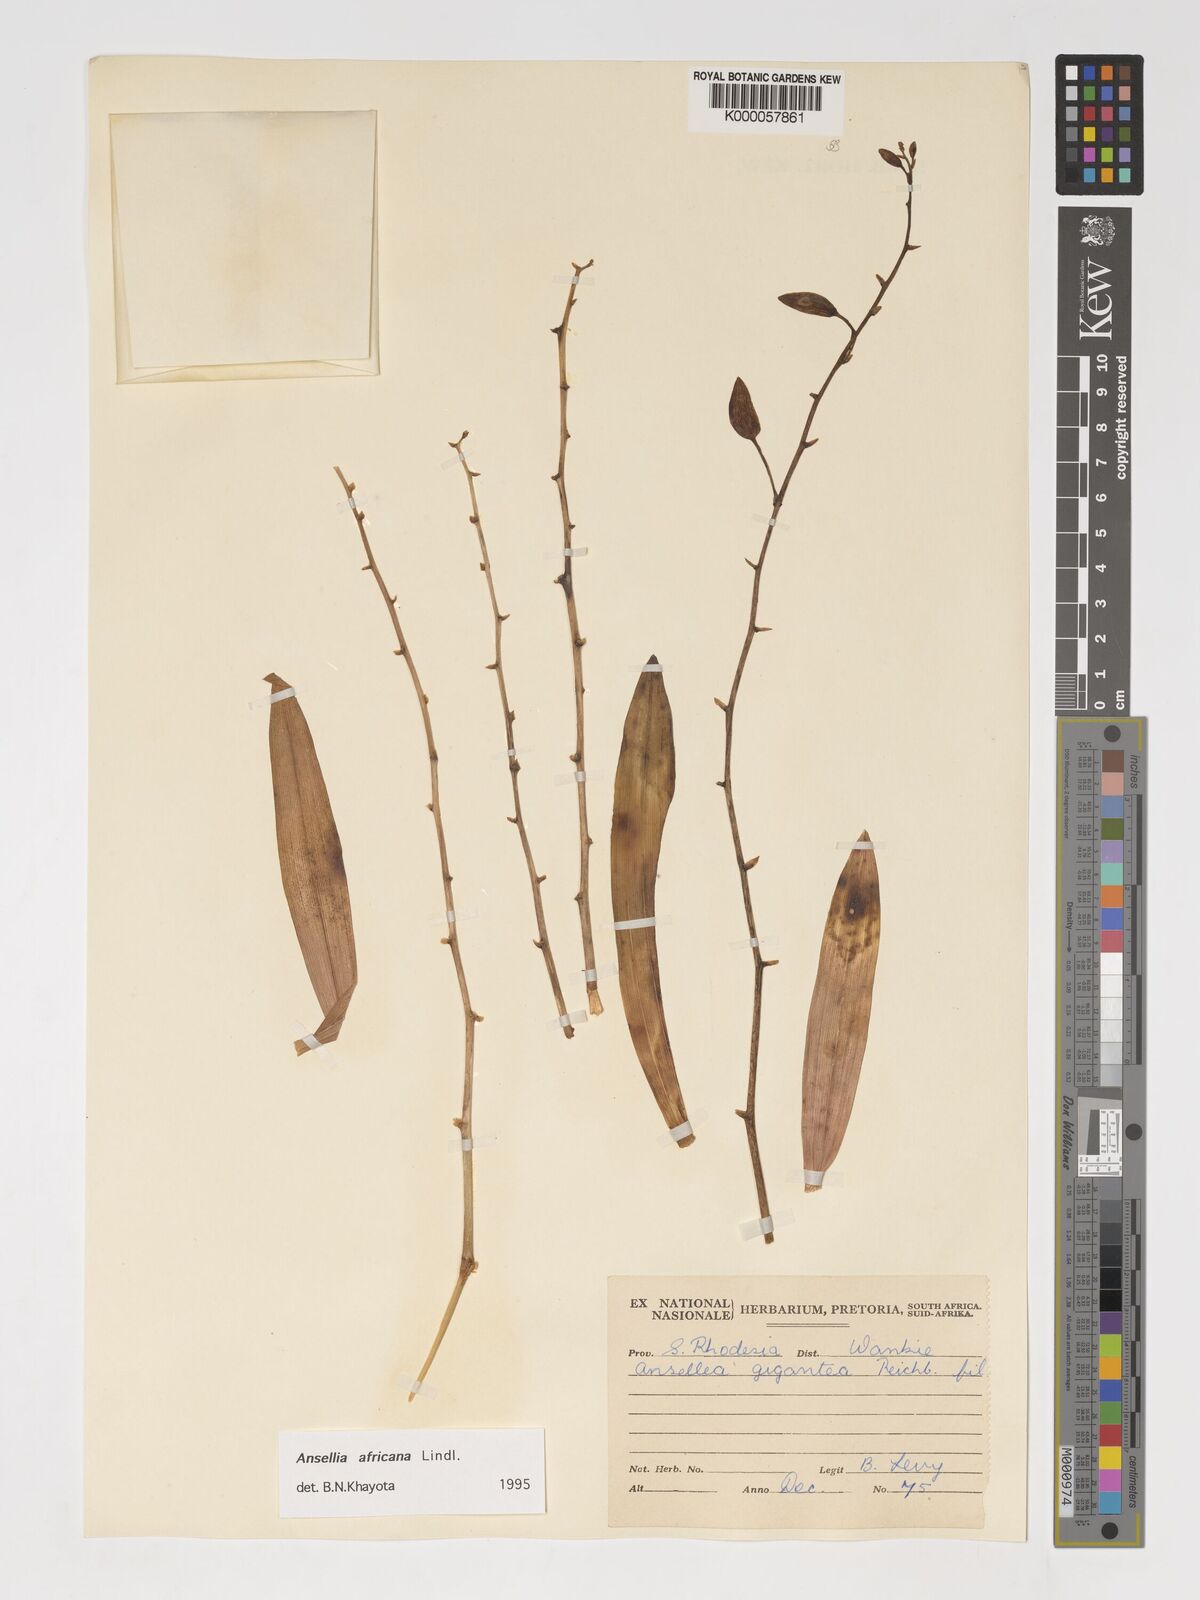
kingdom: Plantae
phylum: Tracheophyta
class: Liliopsida
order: Asparagales
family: Orchidaceae
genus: Ansellia
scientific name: Ansellia africana
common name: African ansellia
